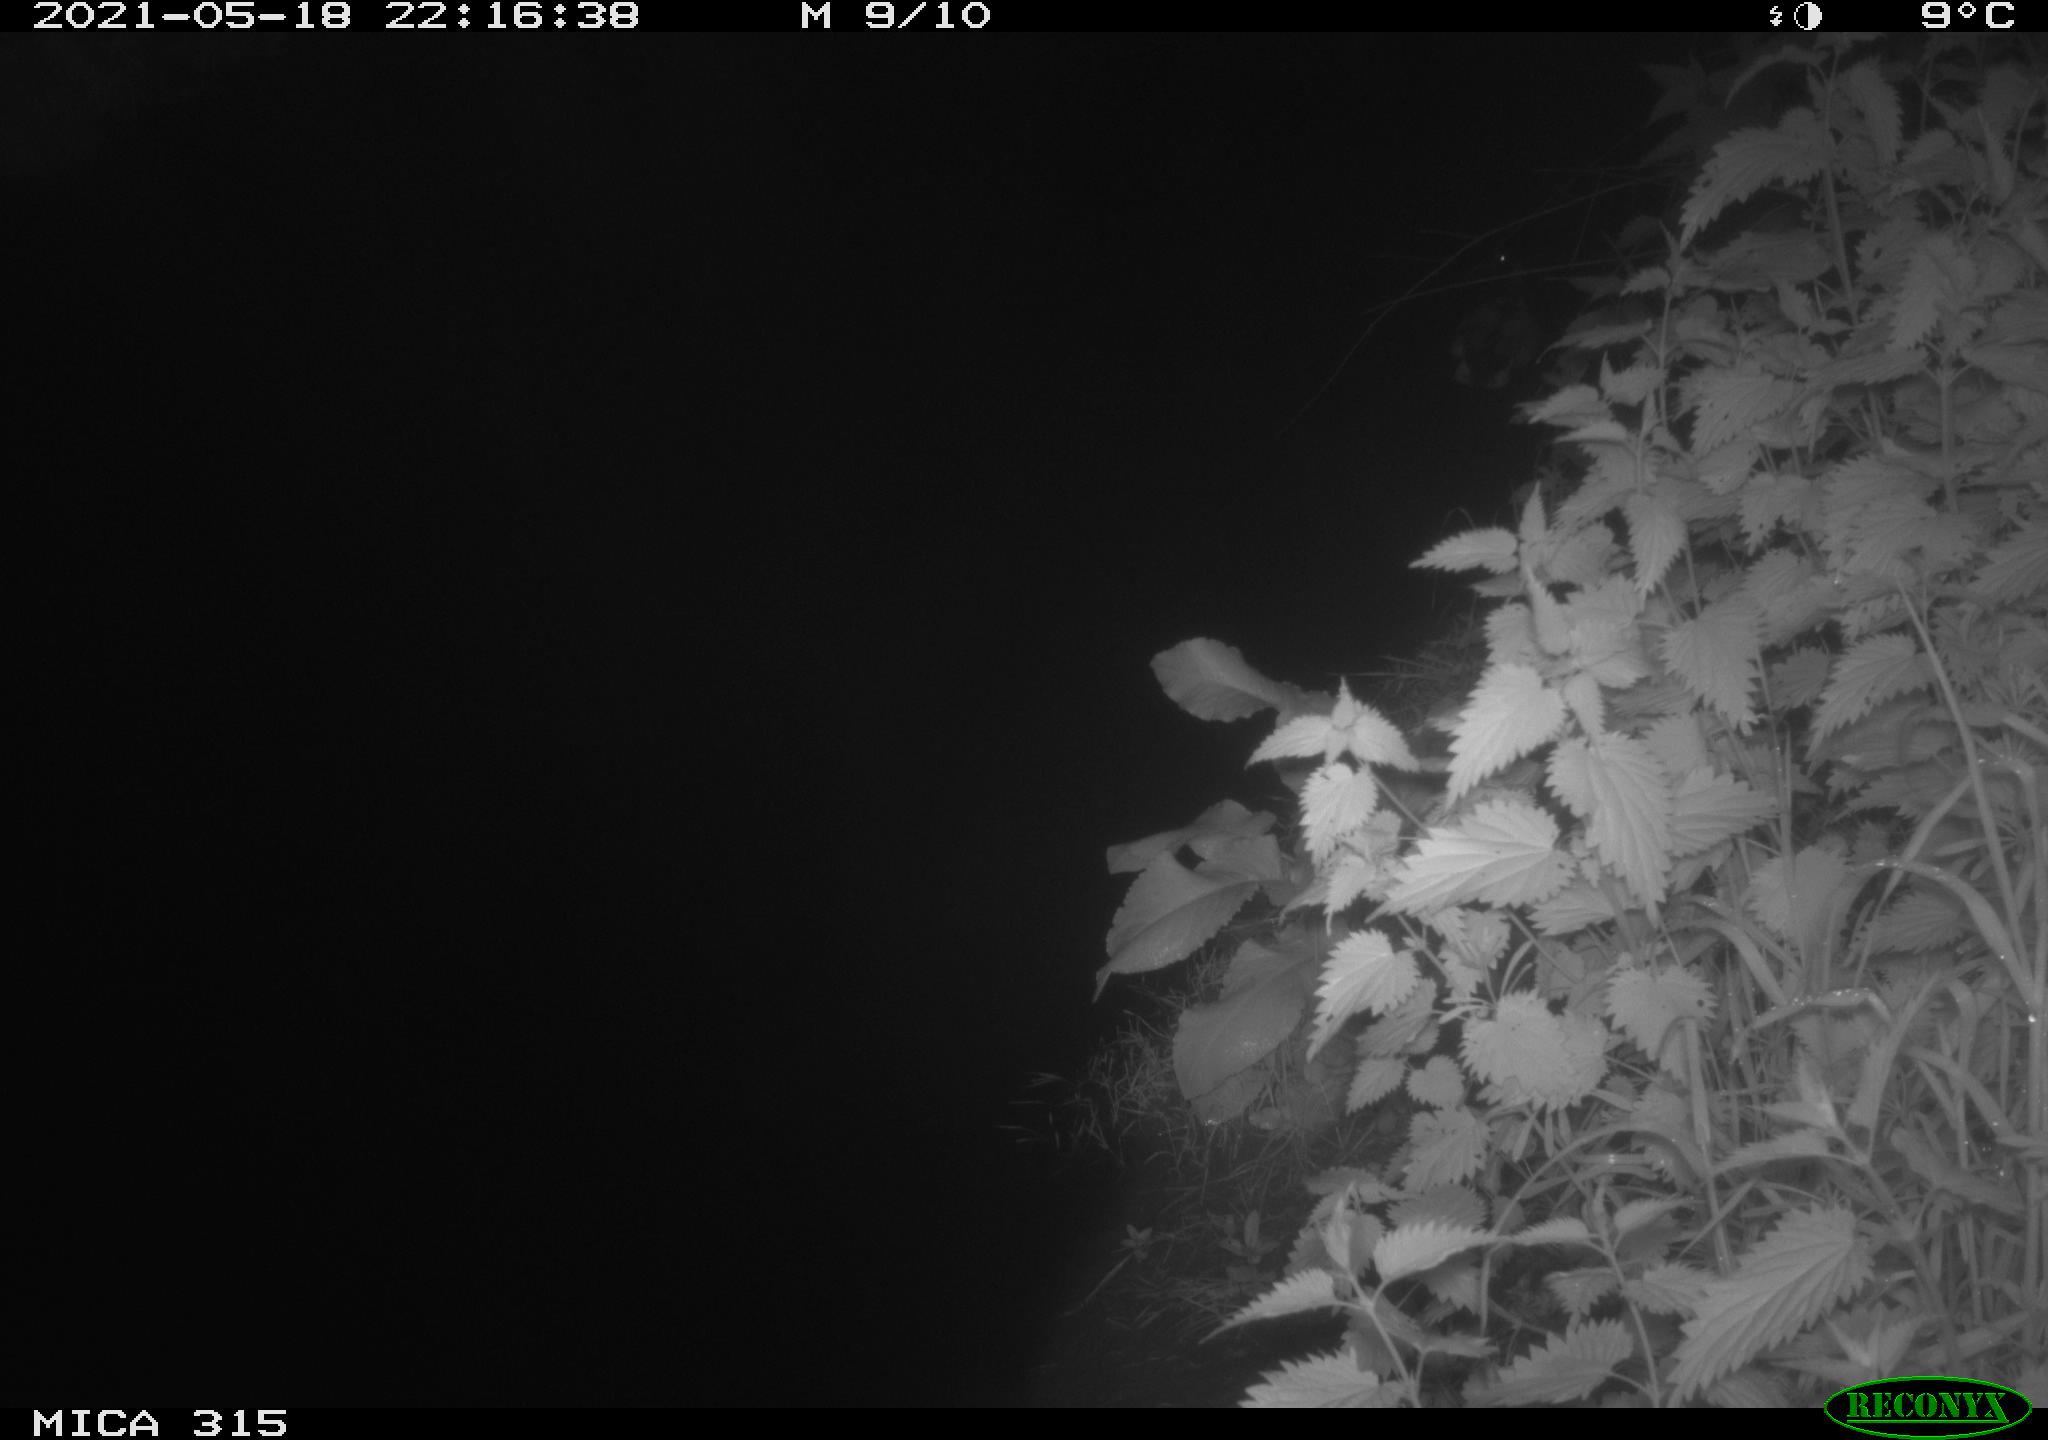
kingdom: Animalia
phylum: Chordata
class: Aves
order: Anseriformes
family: Anatidae
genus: Anas
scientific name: Anas
